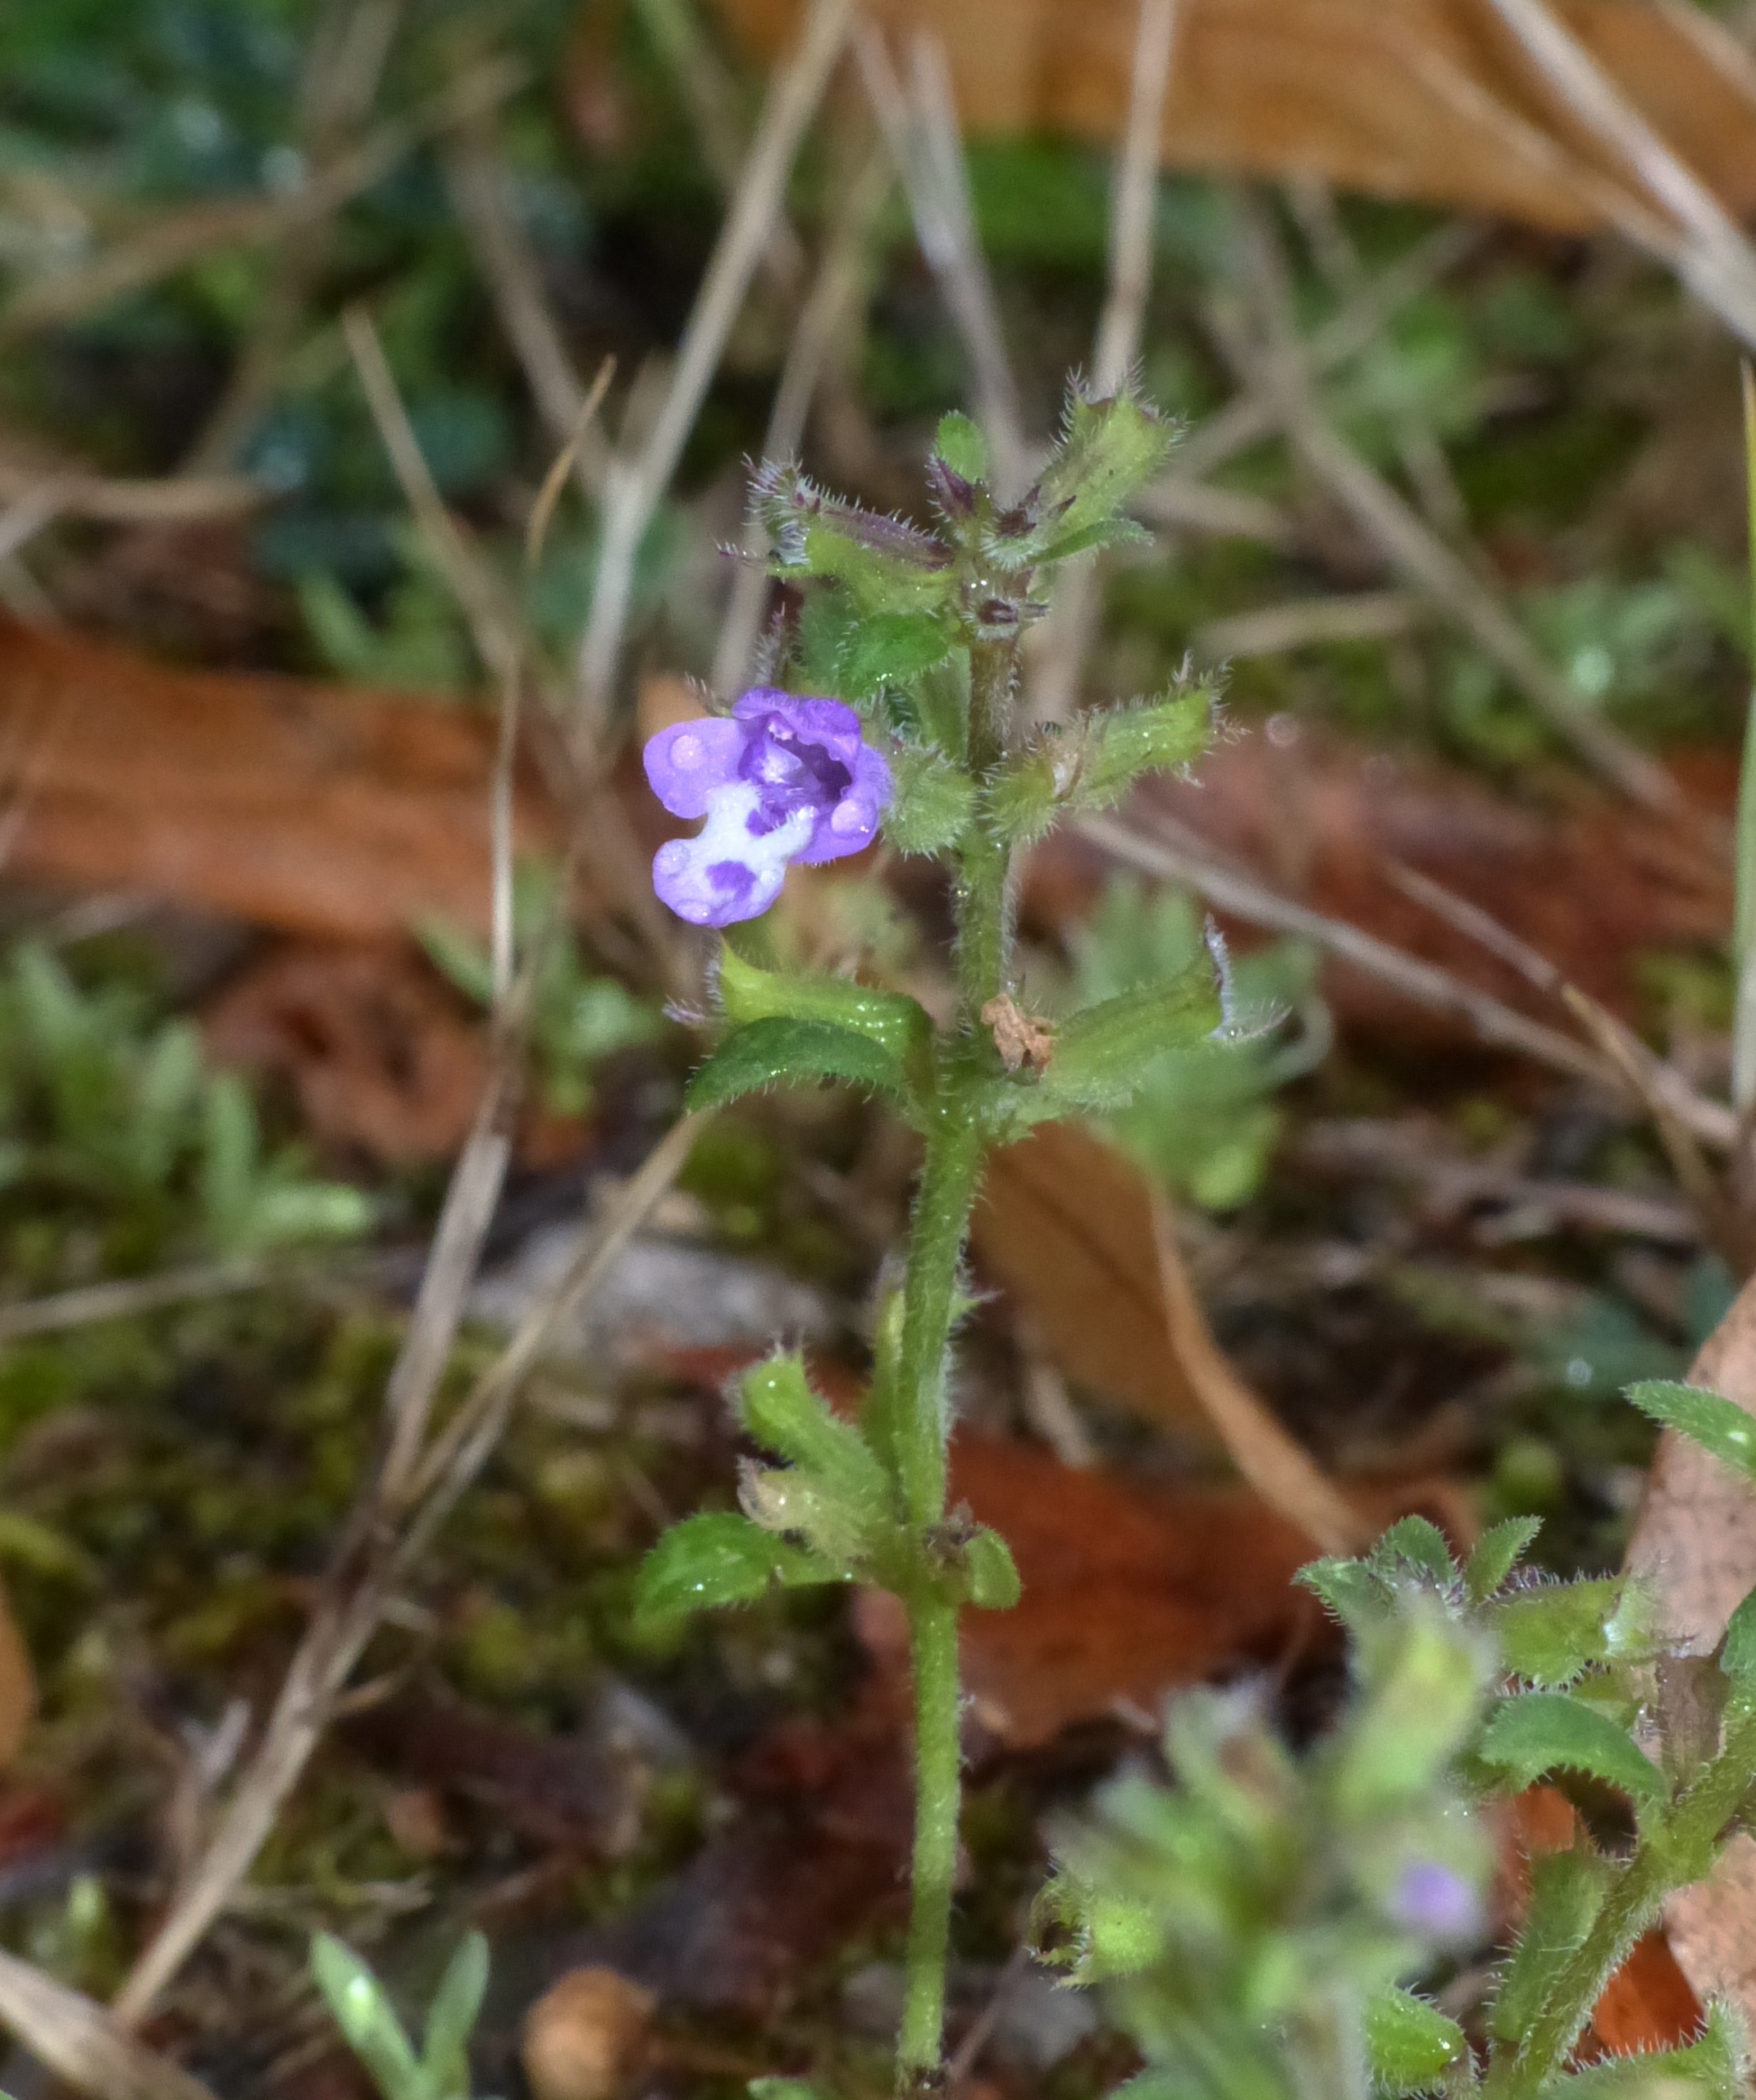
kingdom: Plantae
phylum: Tracheophyta
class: Magnoliopsida
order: Lamiales
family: Lamiaceae
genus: Clinopodium
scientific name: Clinopodium acinos
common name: Voldtimian
